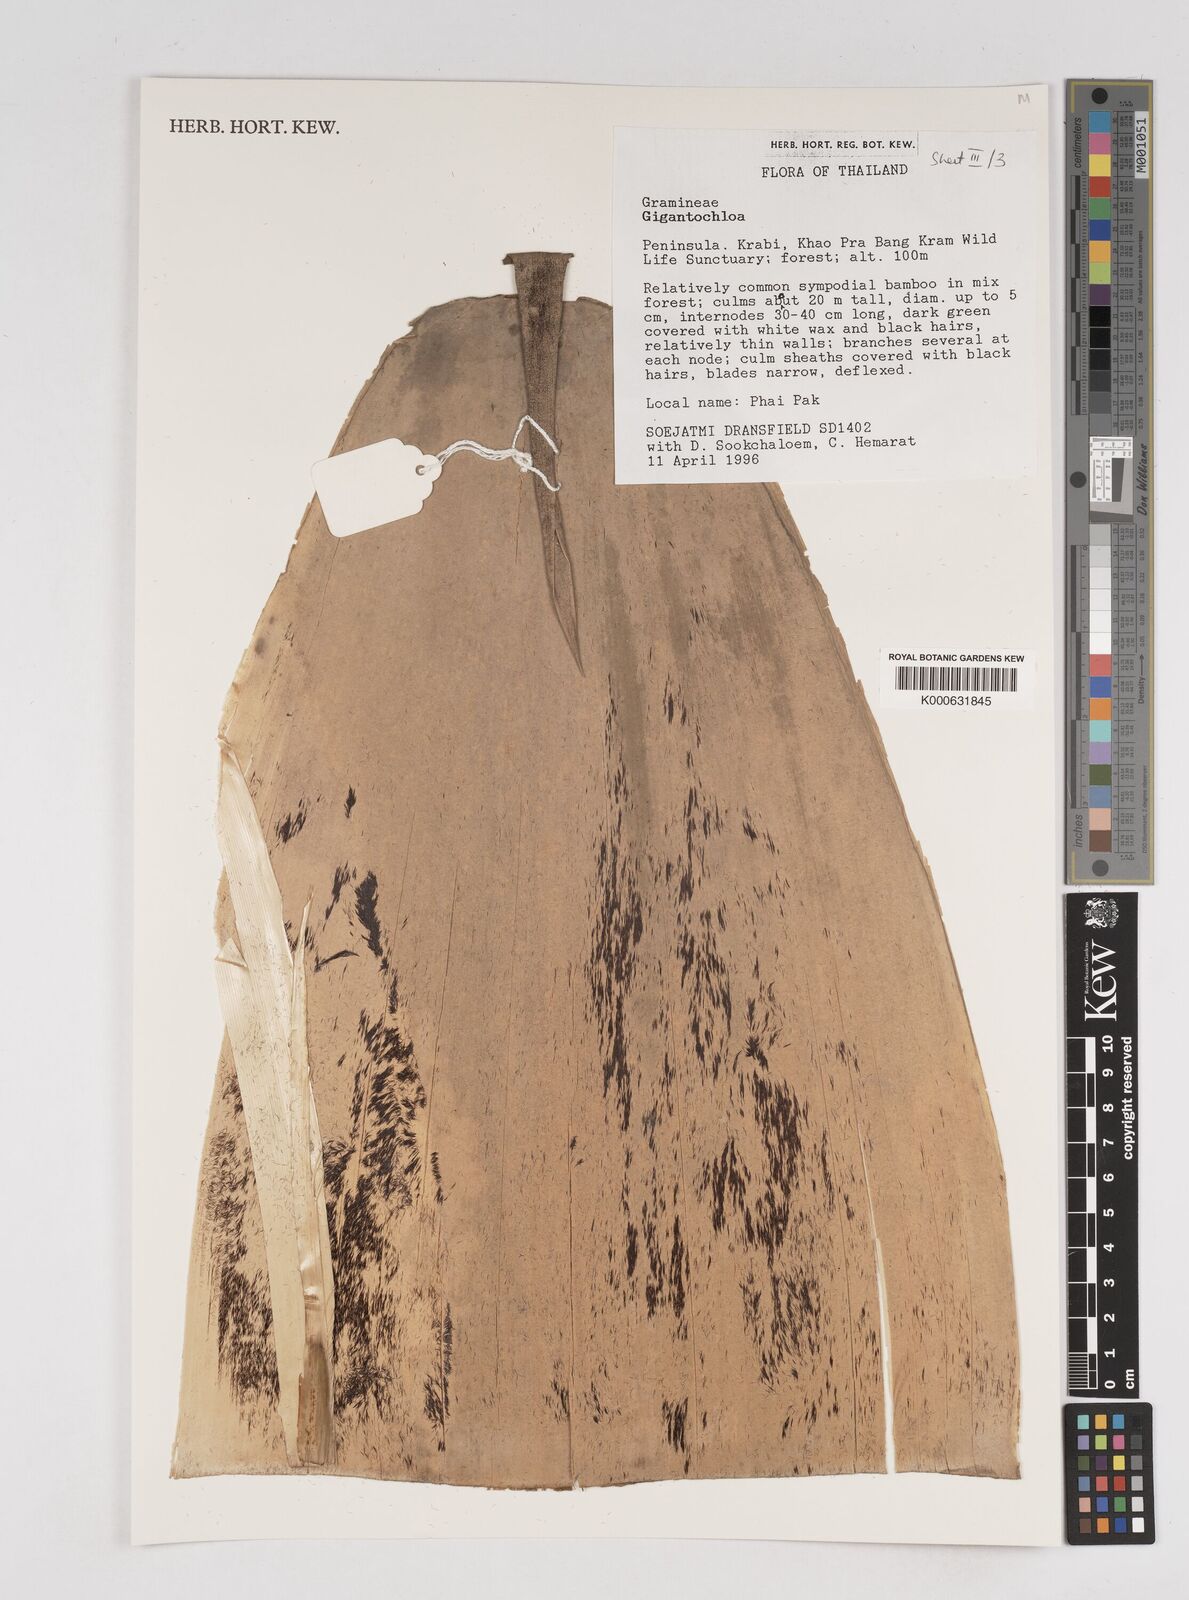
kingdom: Plantae
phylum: Tracheophyta
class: Liliopsida
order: Poales
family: Poaceae
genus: Gigantochloa
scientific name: Gigantochloa
